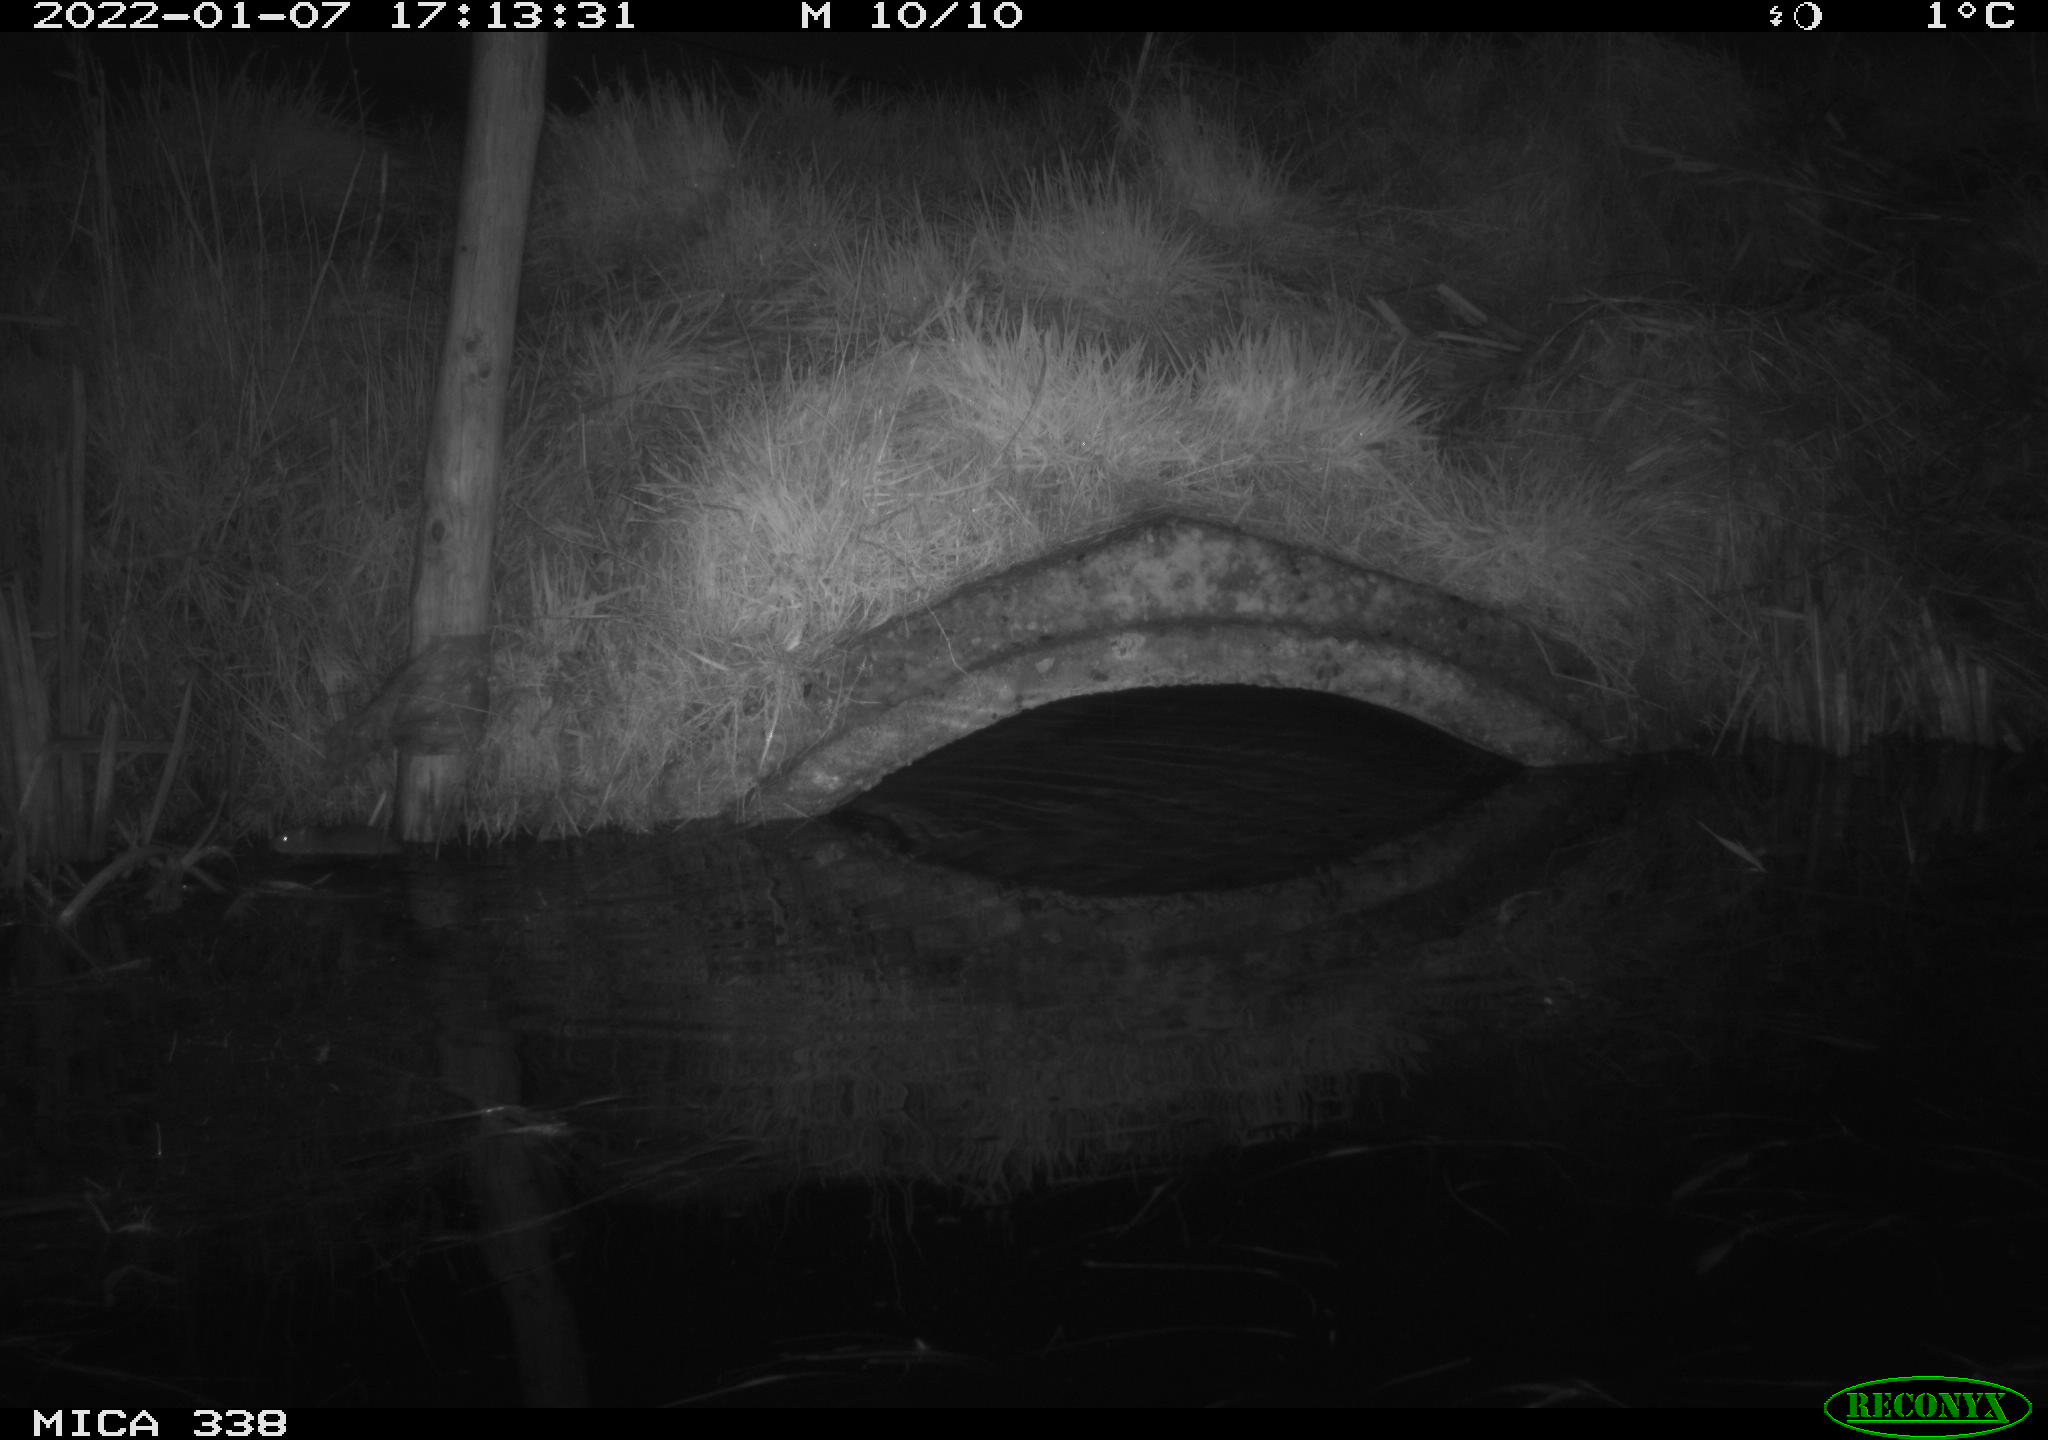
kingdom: Animalia
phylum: Chordata
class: Mammalia
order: Rodentia
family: Muridae
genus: Rattus
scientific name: Rattus norvegicus
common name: Brown rat
